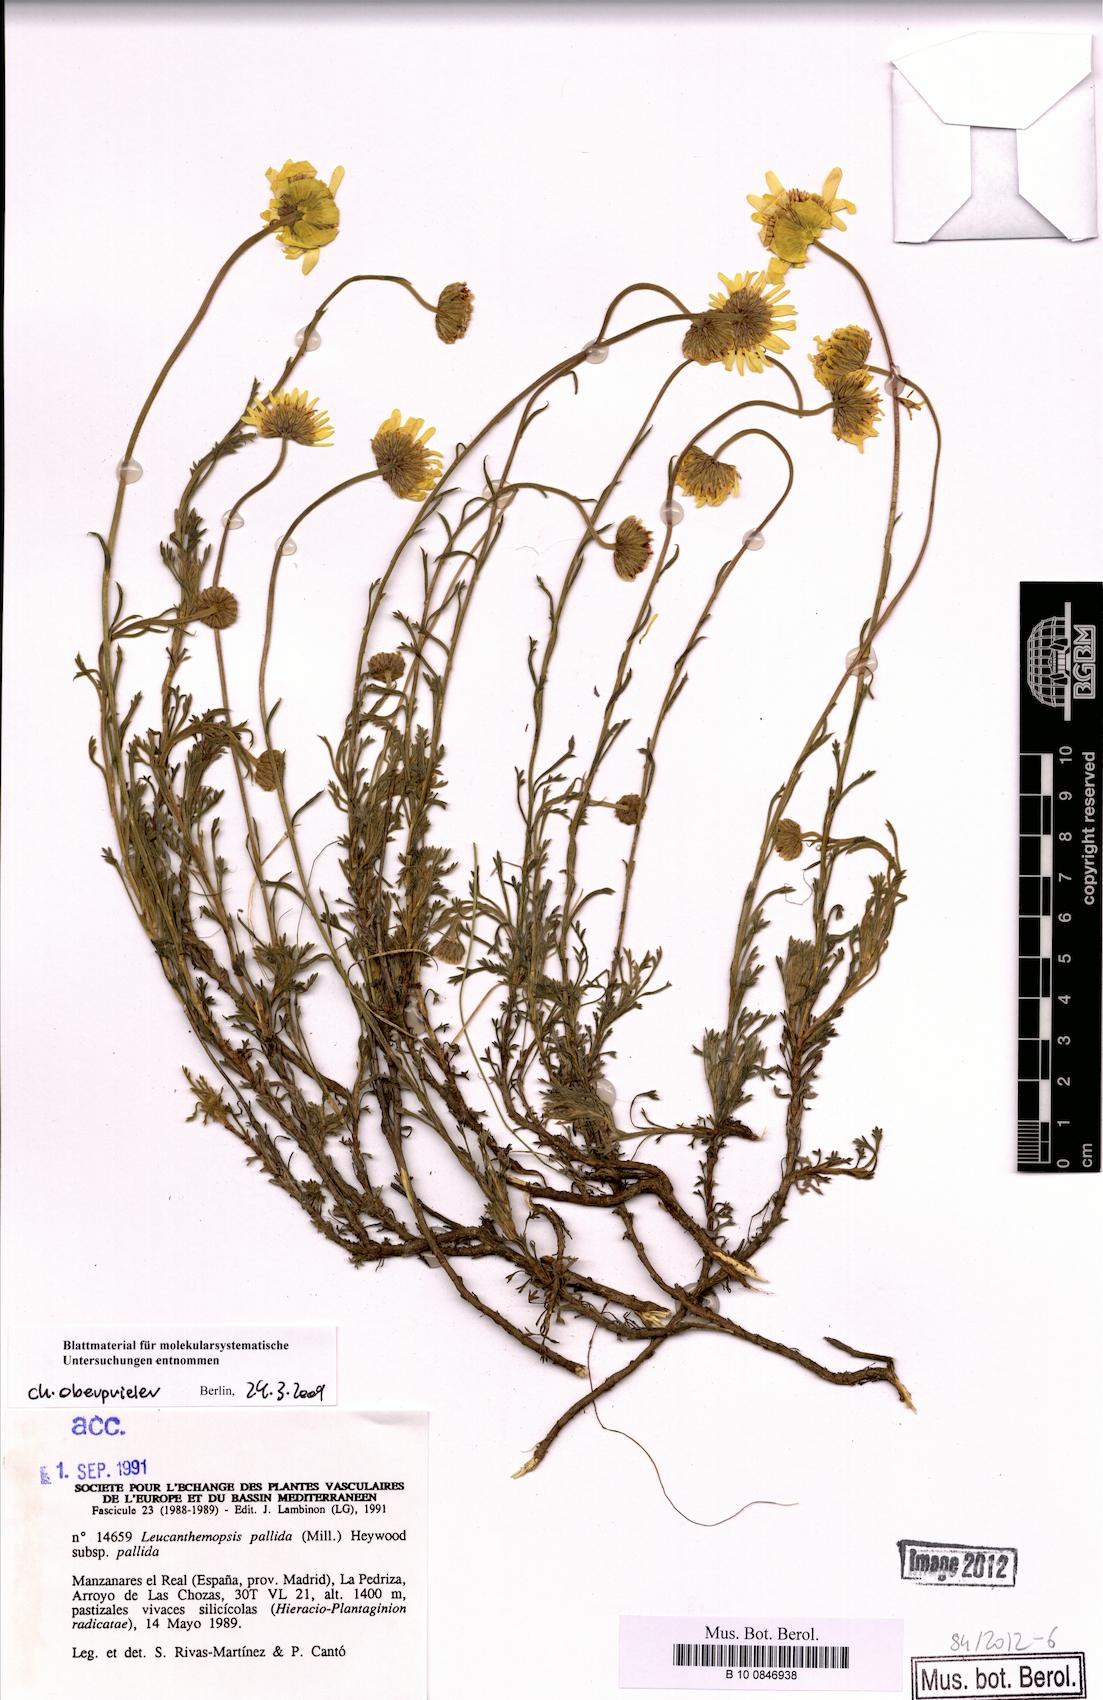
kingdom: Plantae
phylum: Tracheophyta
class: Magnoliopsida
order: Asterales
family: Asteraceae
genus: Leucanthemopsis
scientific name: Leucanthemopsis pallida
